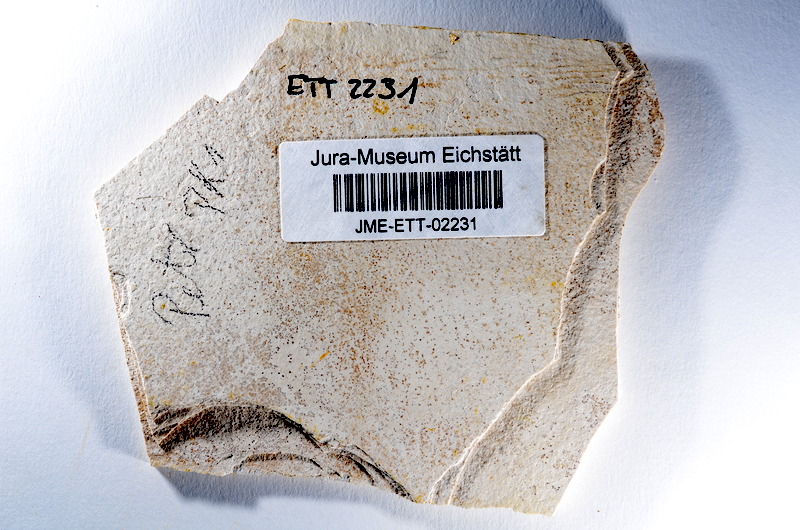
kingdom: Animalia
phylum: Chordata
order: Salmoniformes
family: Orthogonikleithridae
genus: Orthogonikleithrus
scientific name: Orthogonikleithrus hoelli
